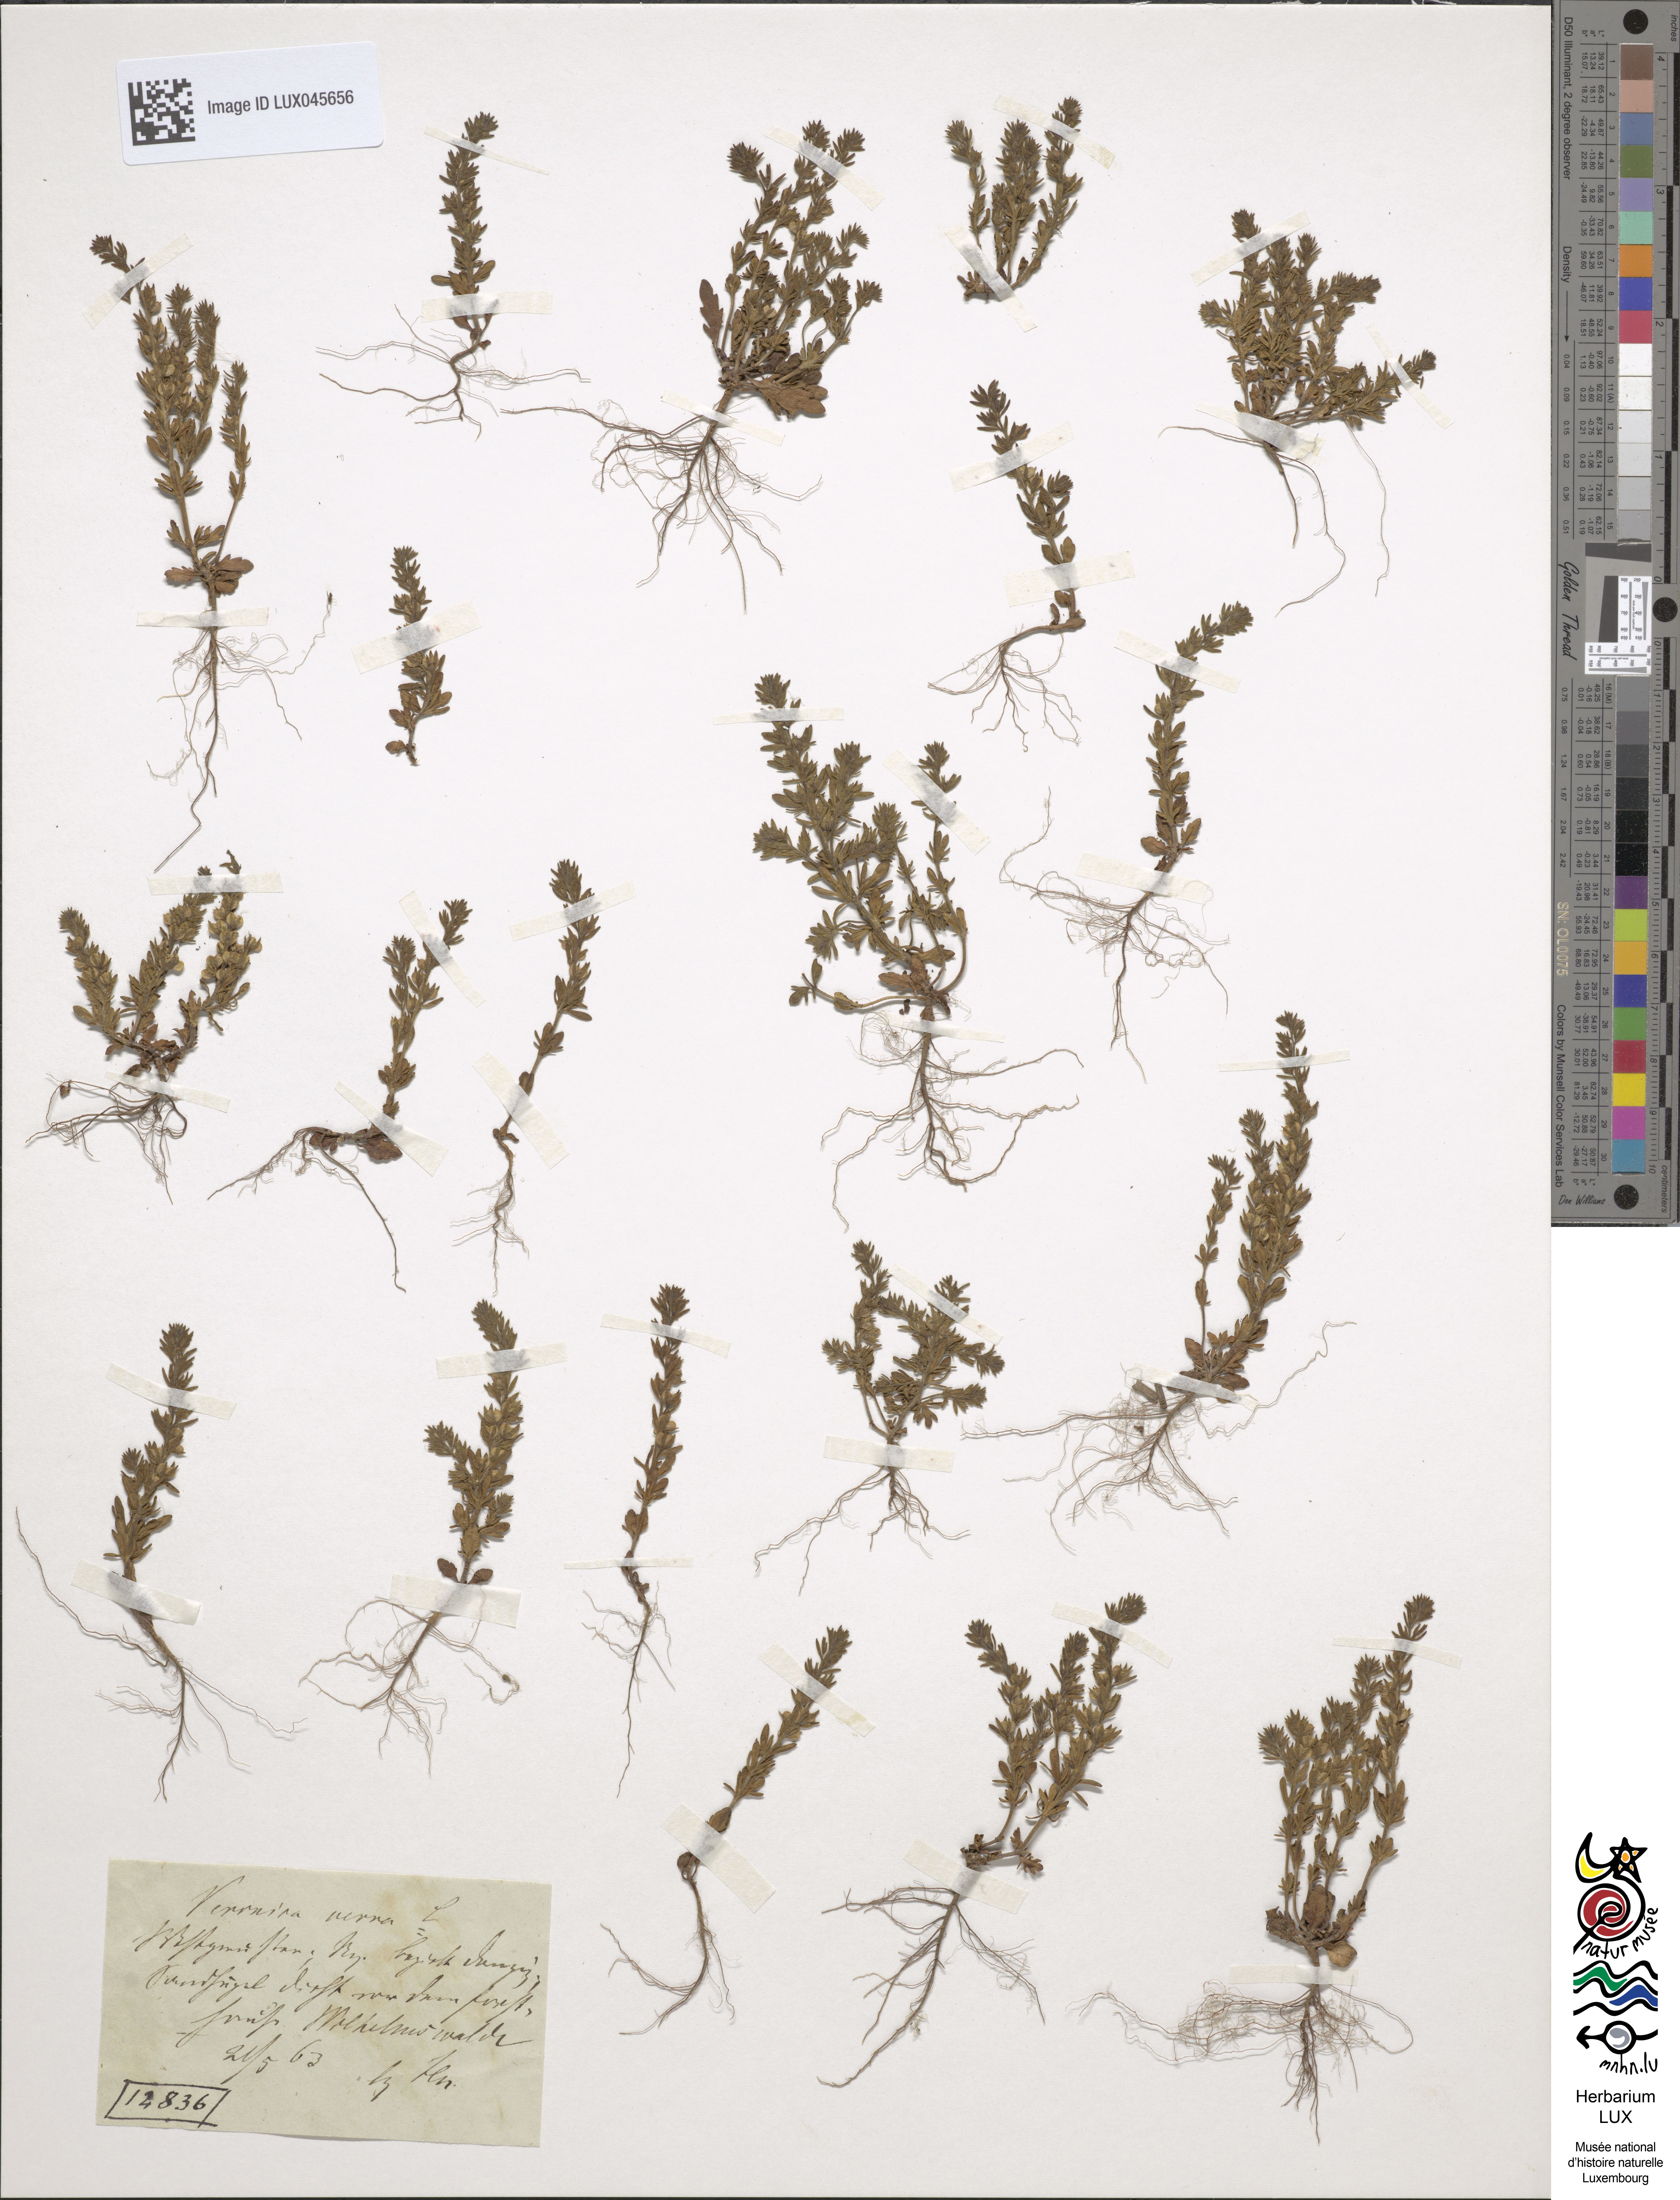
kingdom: Plantae
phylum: Tracheophyta
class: Magnoliopsida
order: Lamiales
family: Plantaginaceae
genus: Veronica
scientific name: Veronica verna
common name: Spring speedwell
